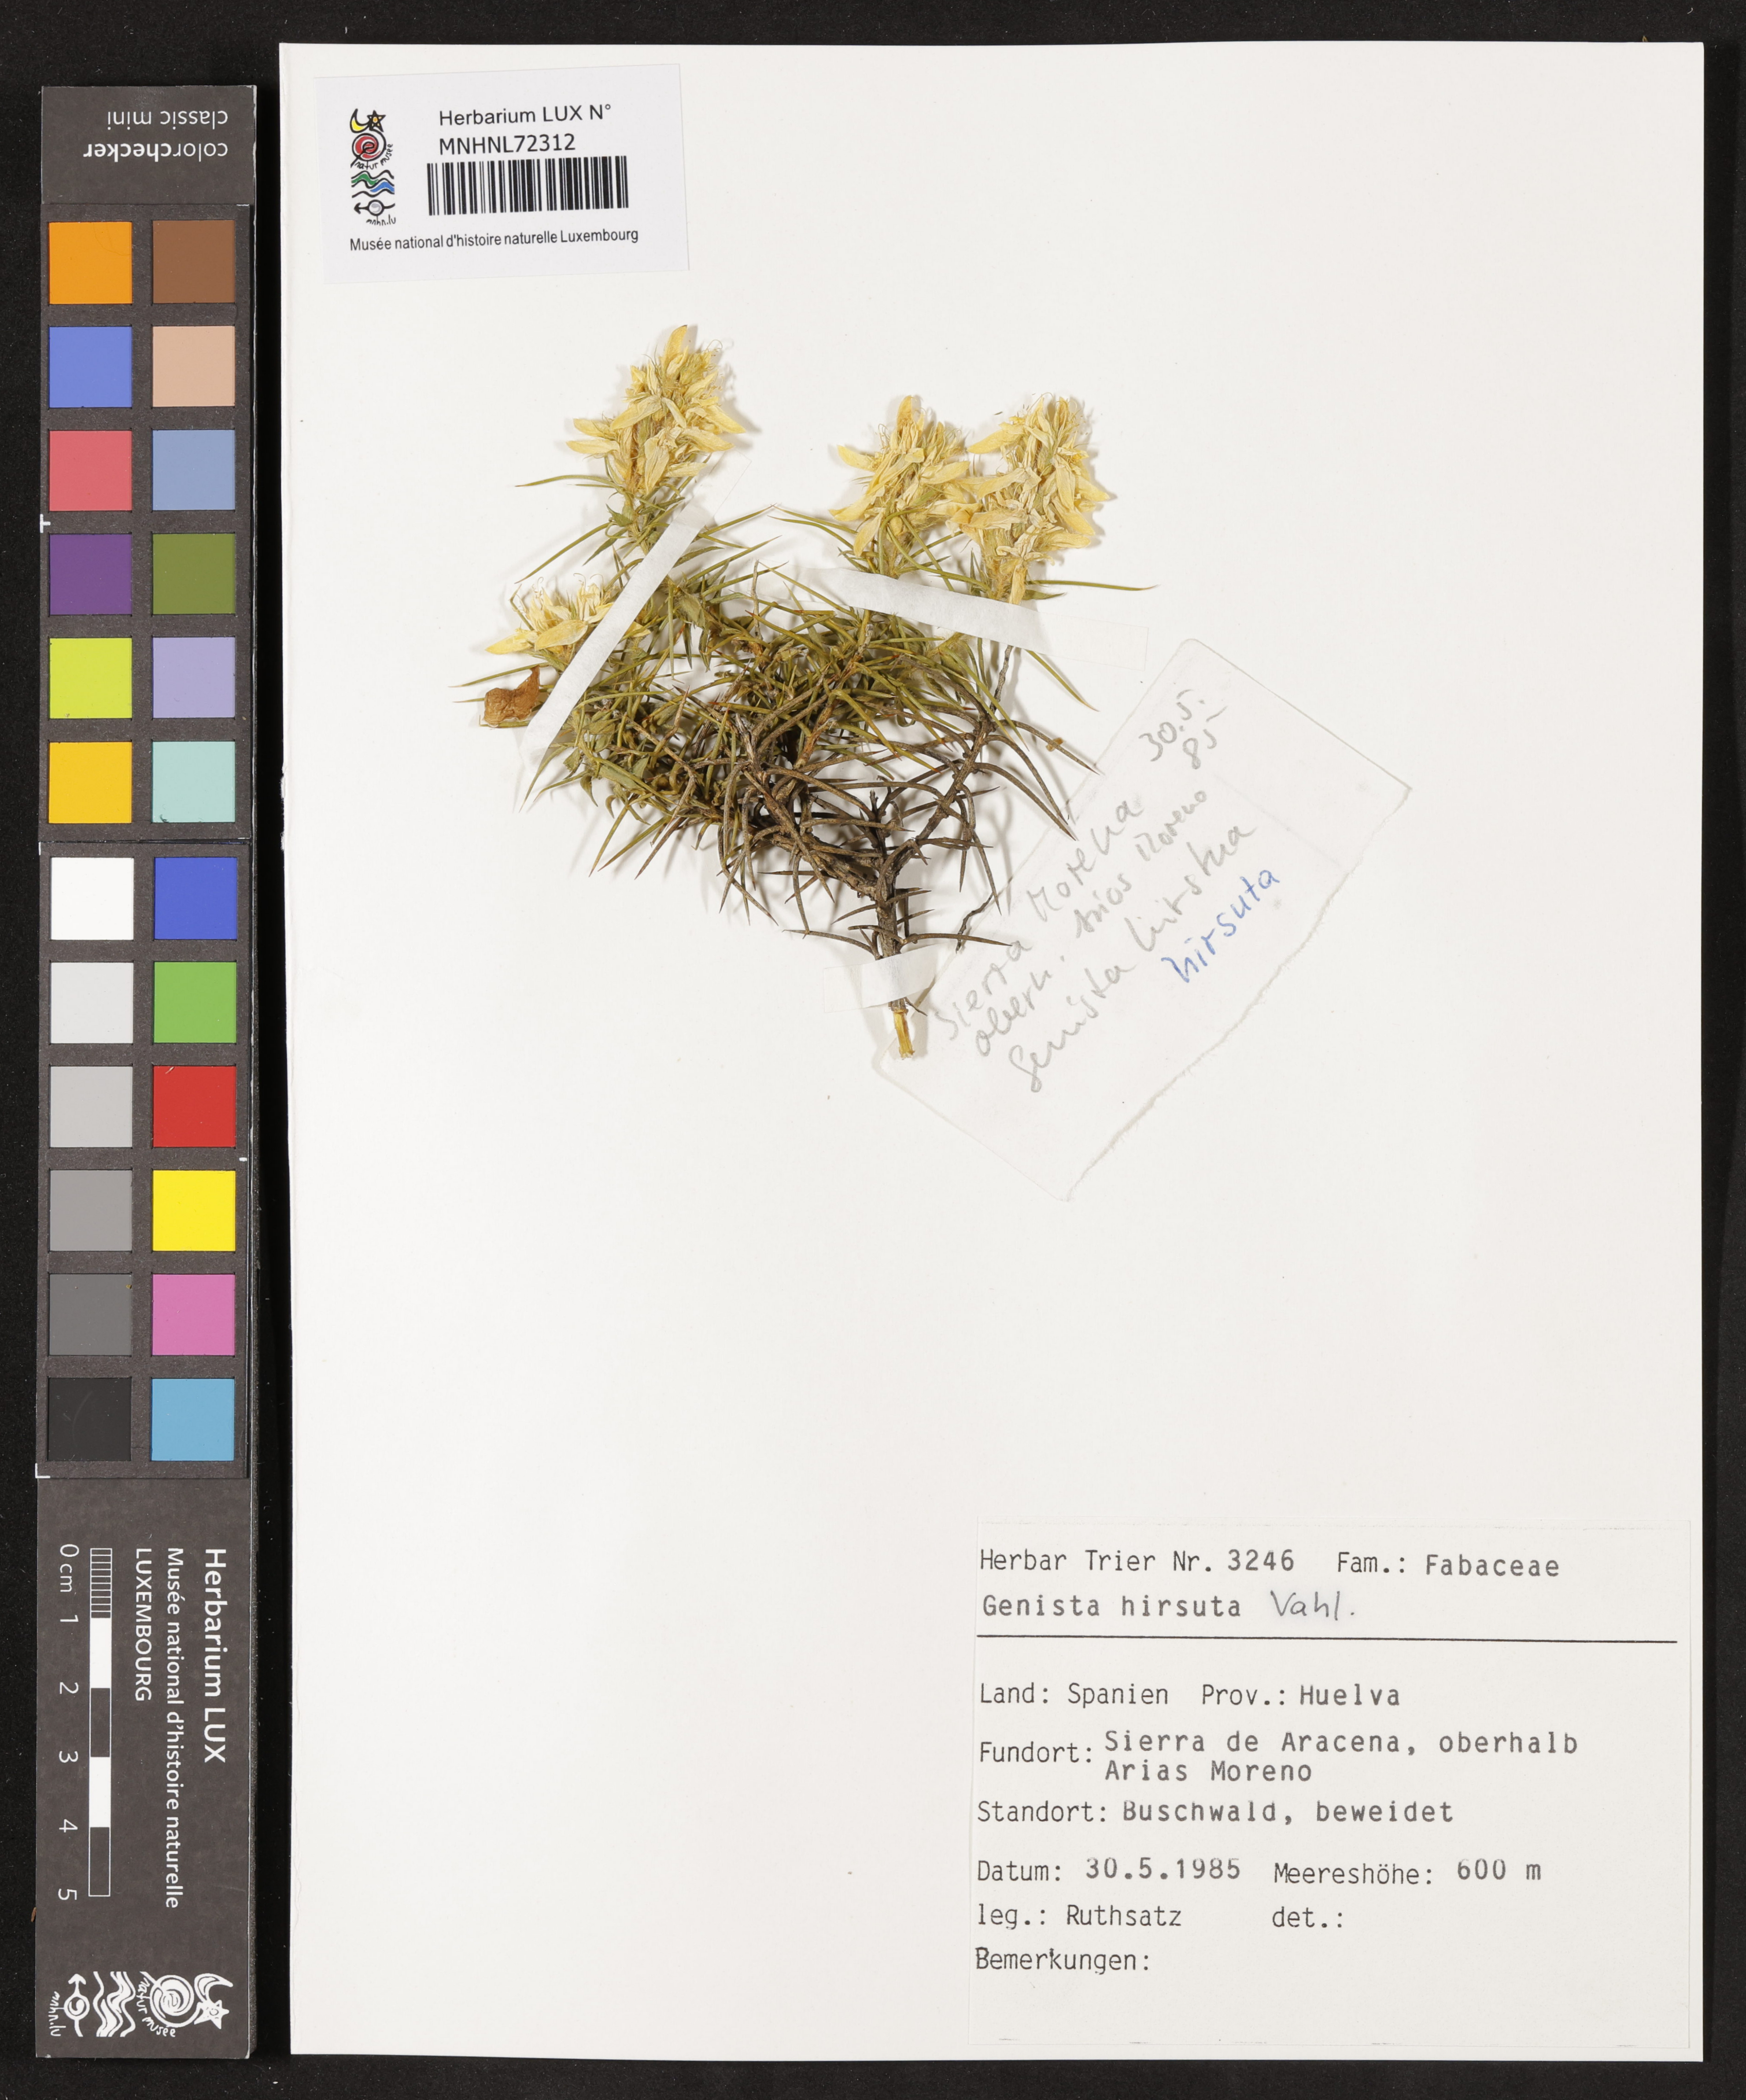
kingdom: Plantae
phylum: Tracheophyta
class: Magnoliopsida
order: Fabales
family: Fabaceae
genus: Genista
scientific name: Genista hirsuta
